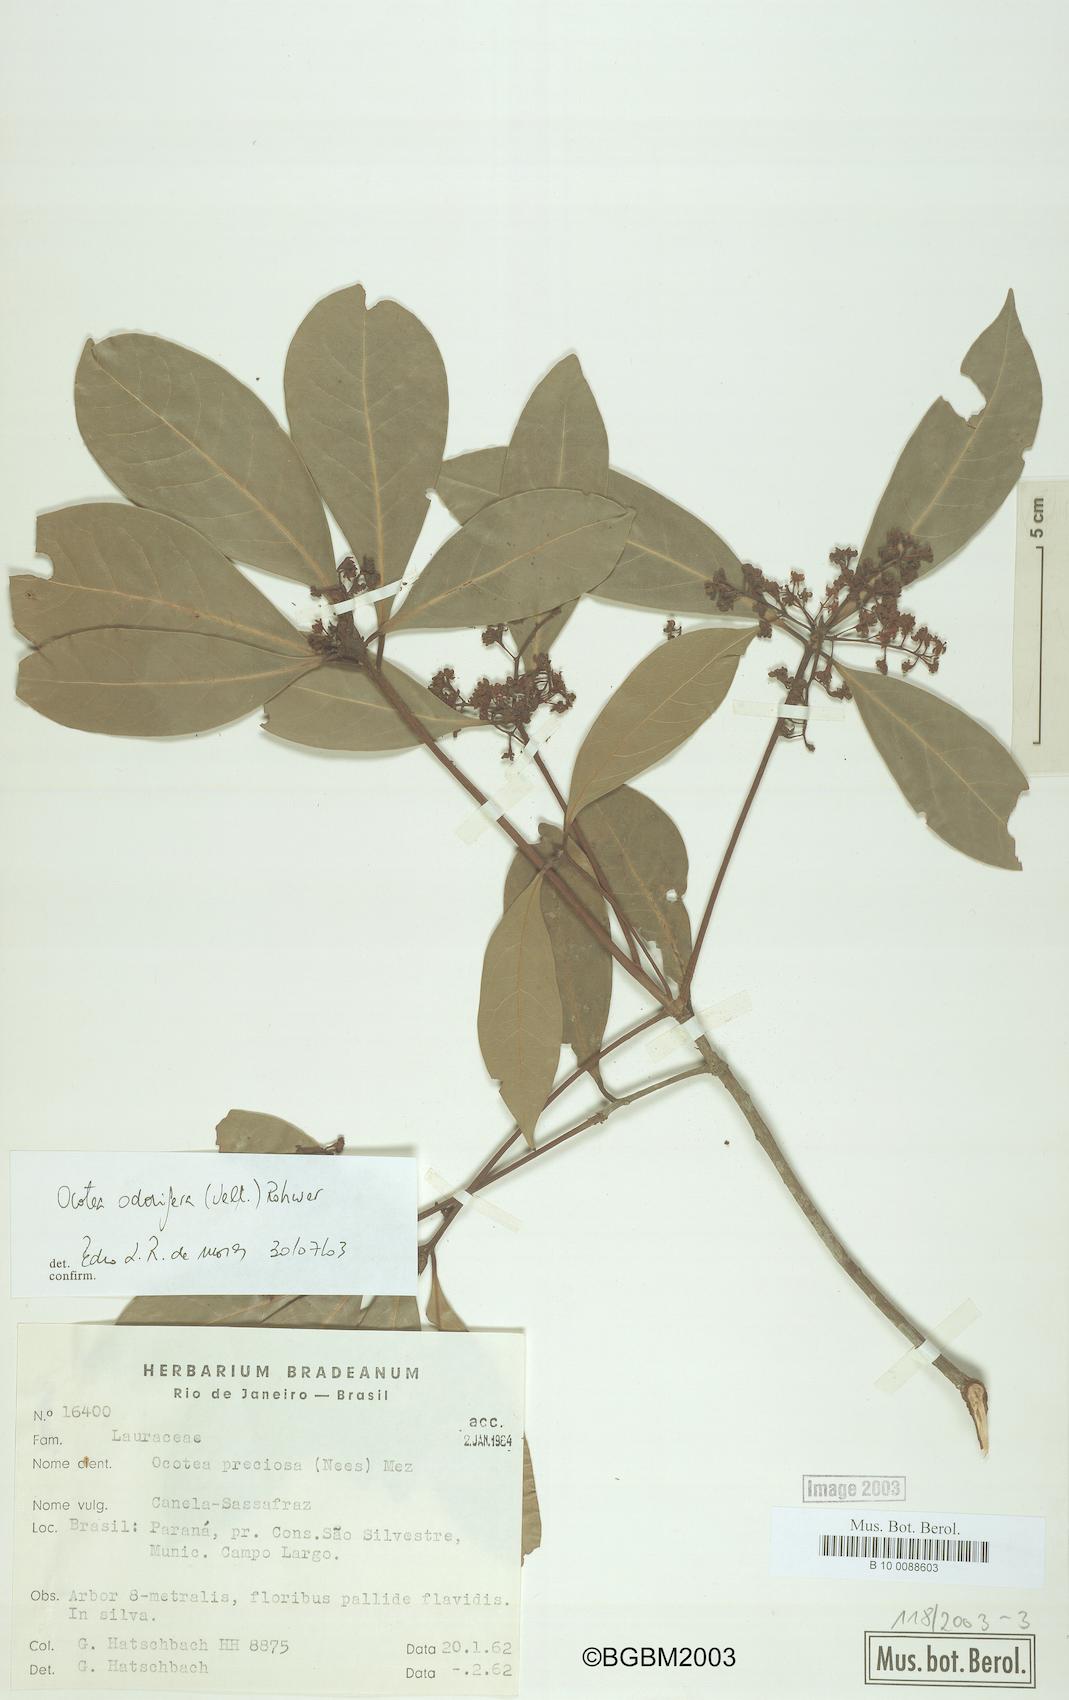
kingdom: Plantae
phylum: Tracheophyta
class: Magnoliopsida
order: Laurales
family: Lauraceae
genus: Mespilodaphne
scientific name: Mespilodaphne quixos
